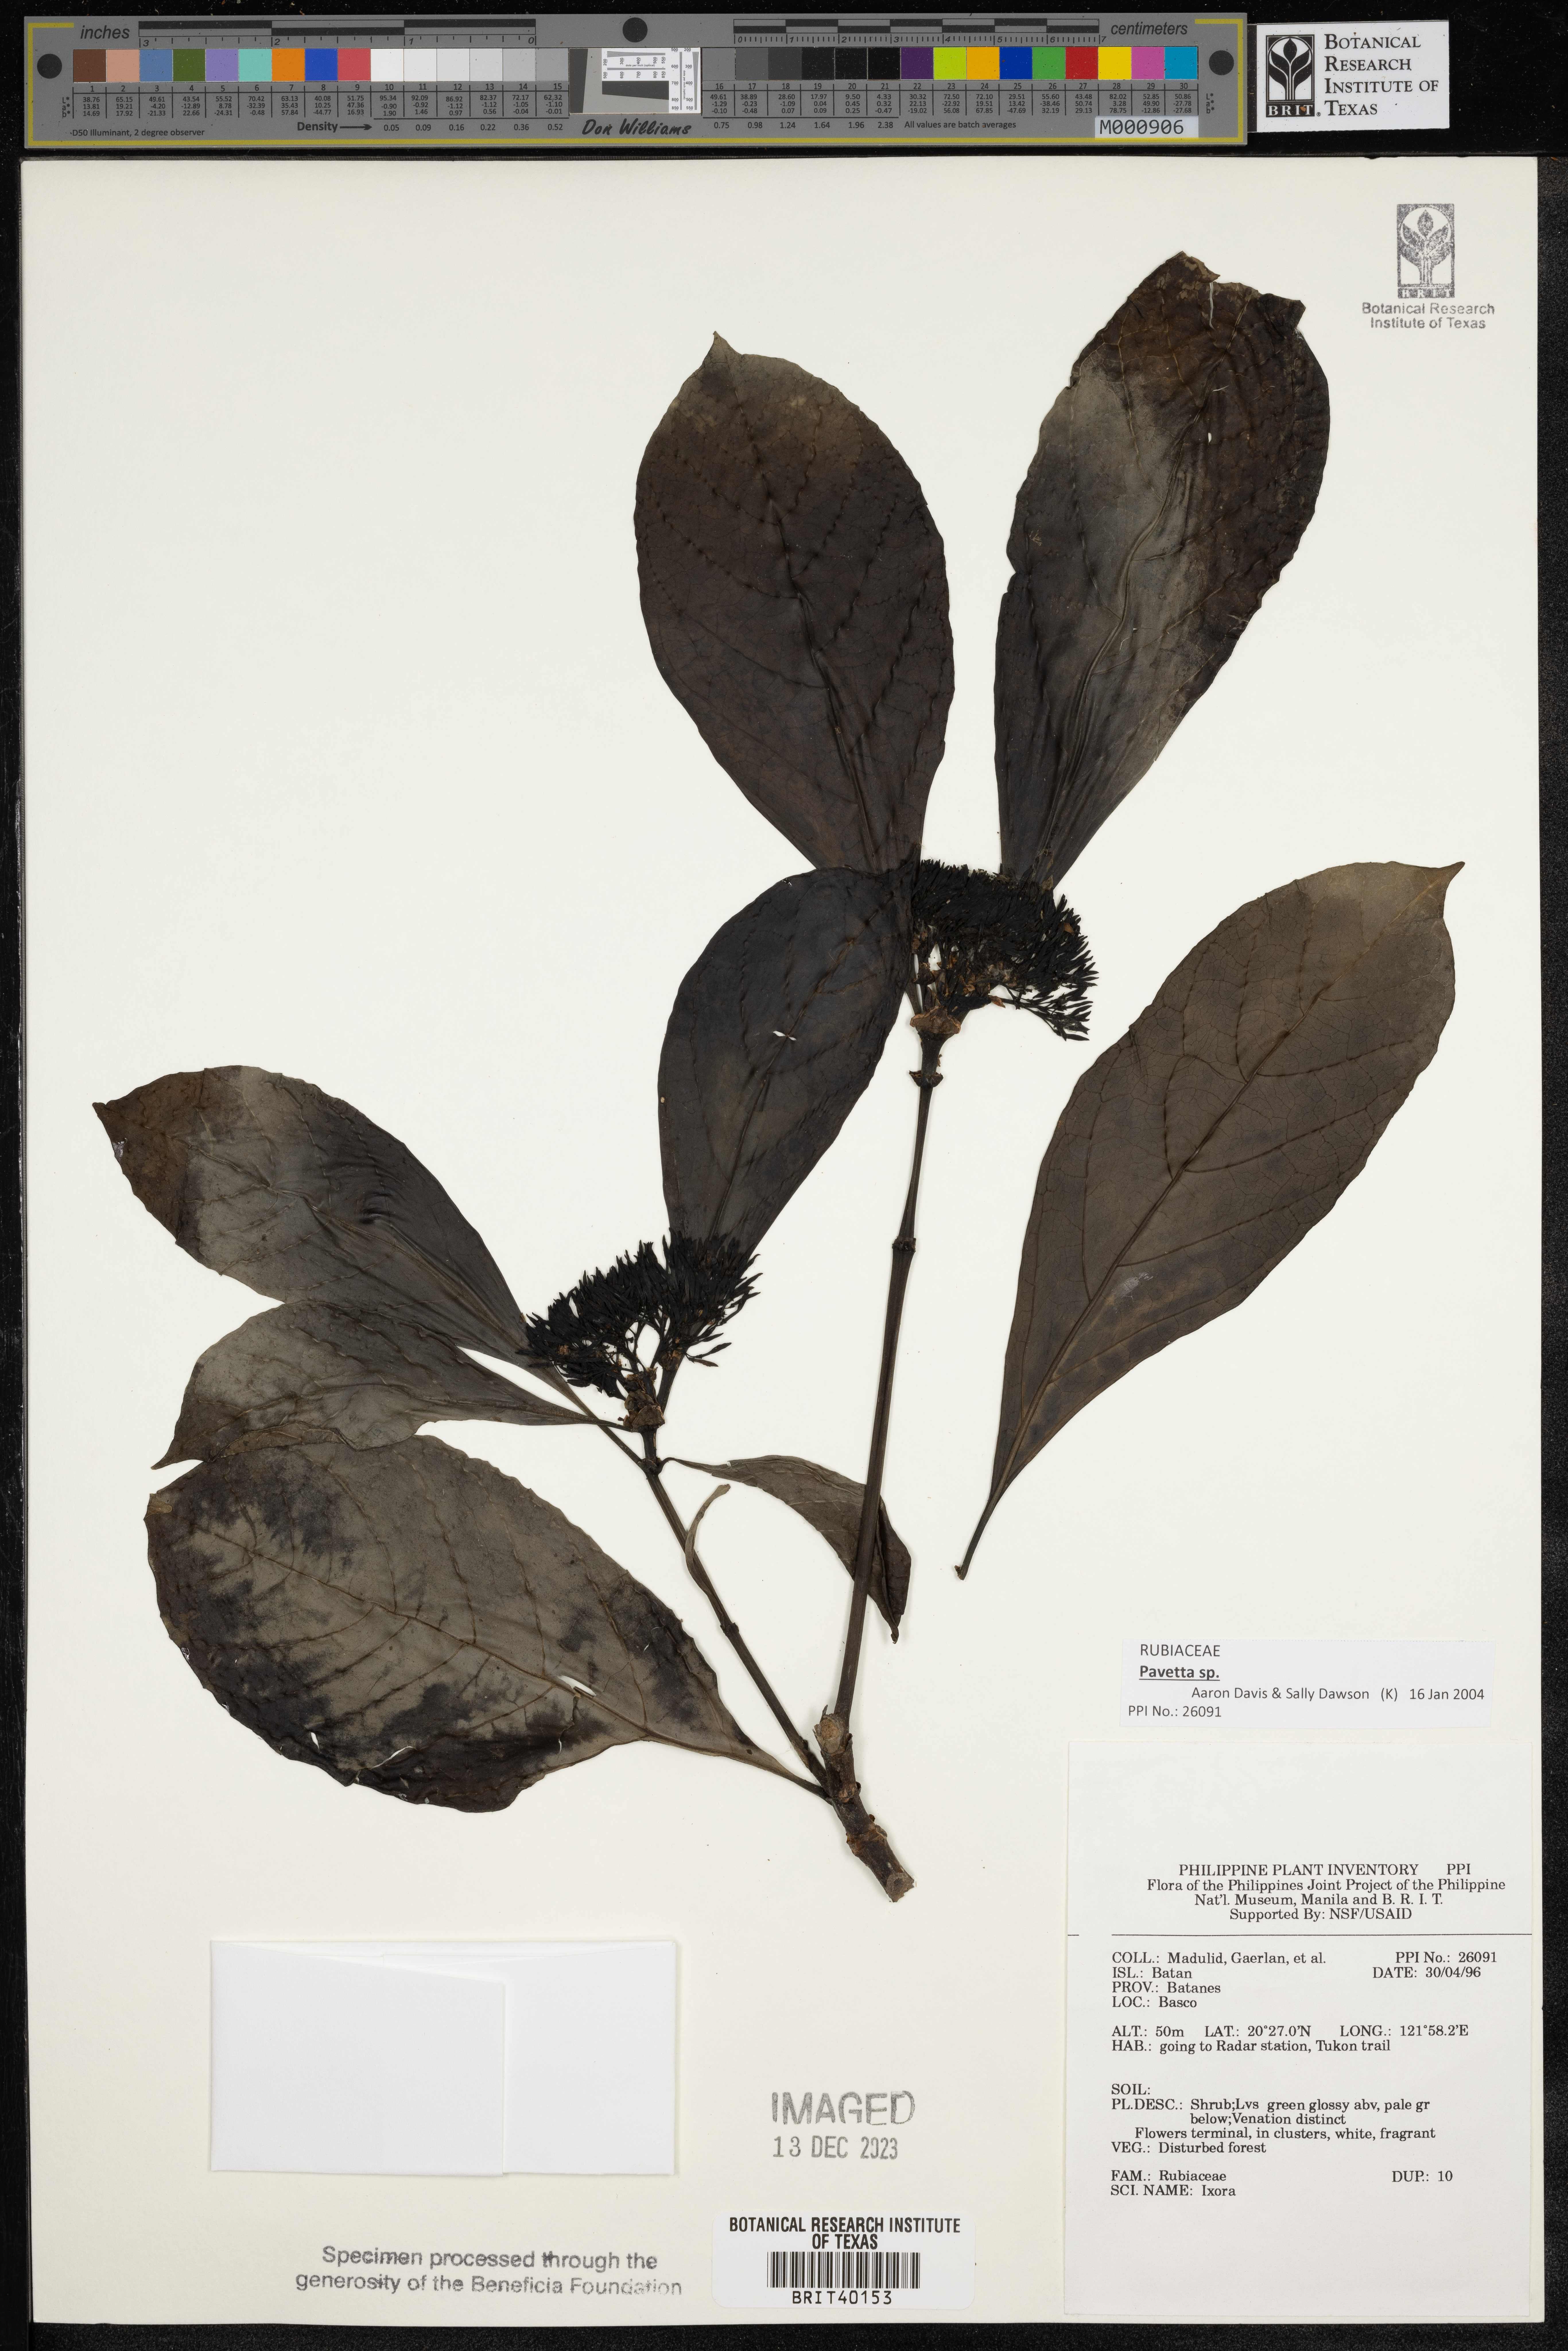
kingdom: Plantae
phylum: Tracheophyta
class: Magnoliopsida
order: Gentianales
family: Rubiaceae
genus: Ixora
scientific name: Ixora
